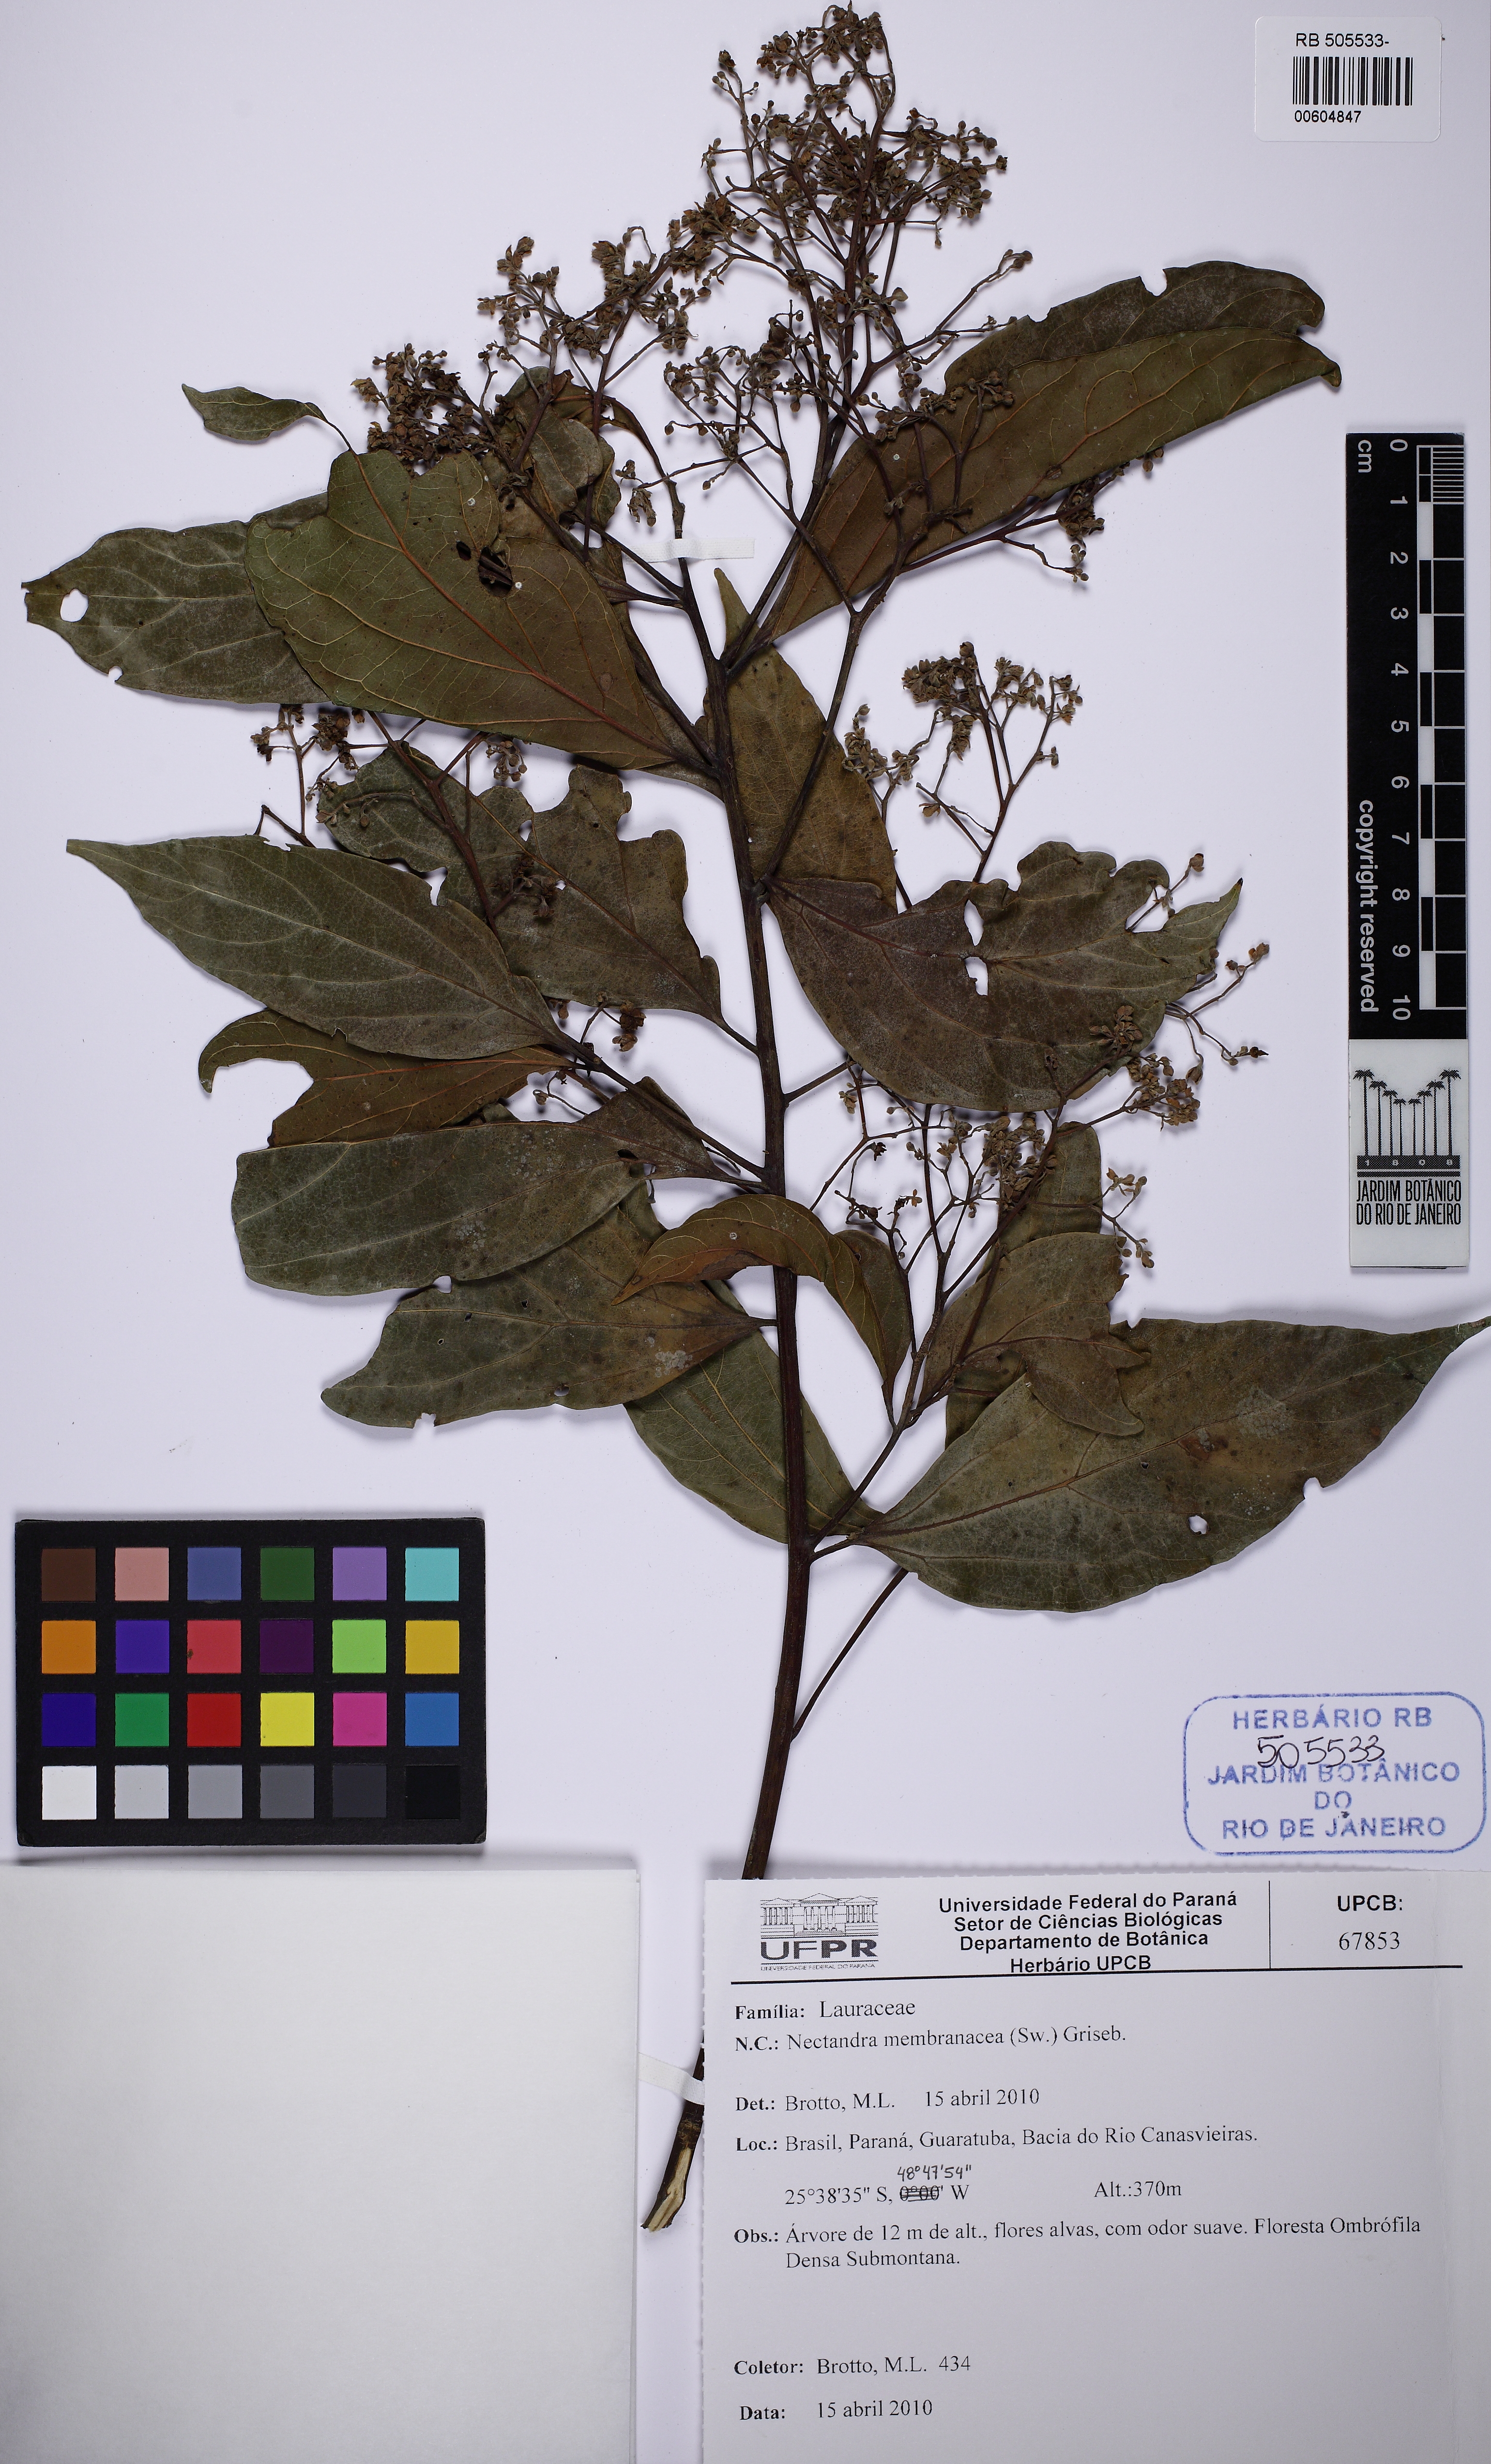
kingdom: Plantae
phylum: Tracheophyta
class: Magnoliopsida
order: Laurales
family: Lauraceae
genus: Nectandra
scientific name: Nectandra membranacea
